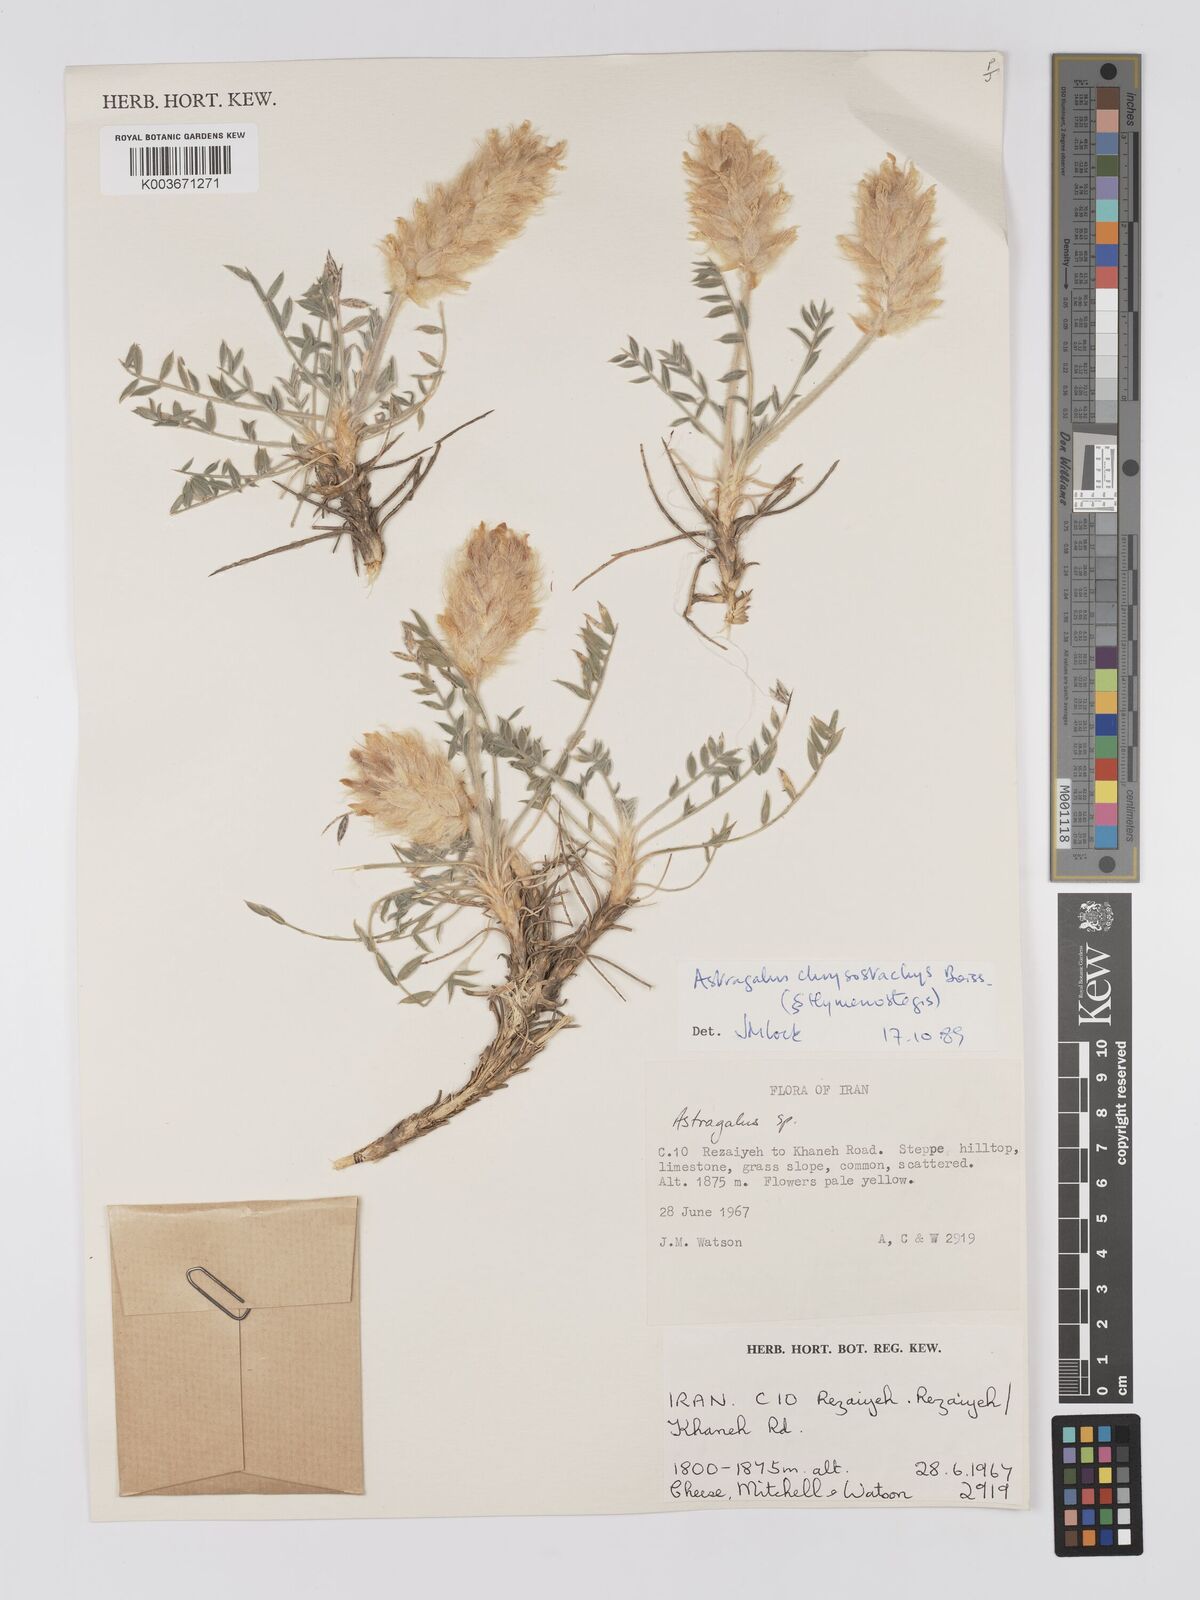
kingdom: Plantae
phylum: Tracheophyta
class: Magnoliopsida
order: Fabales
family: Fabaceae
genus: Astragalus
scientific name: Astragalus chrysostachys
